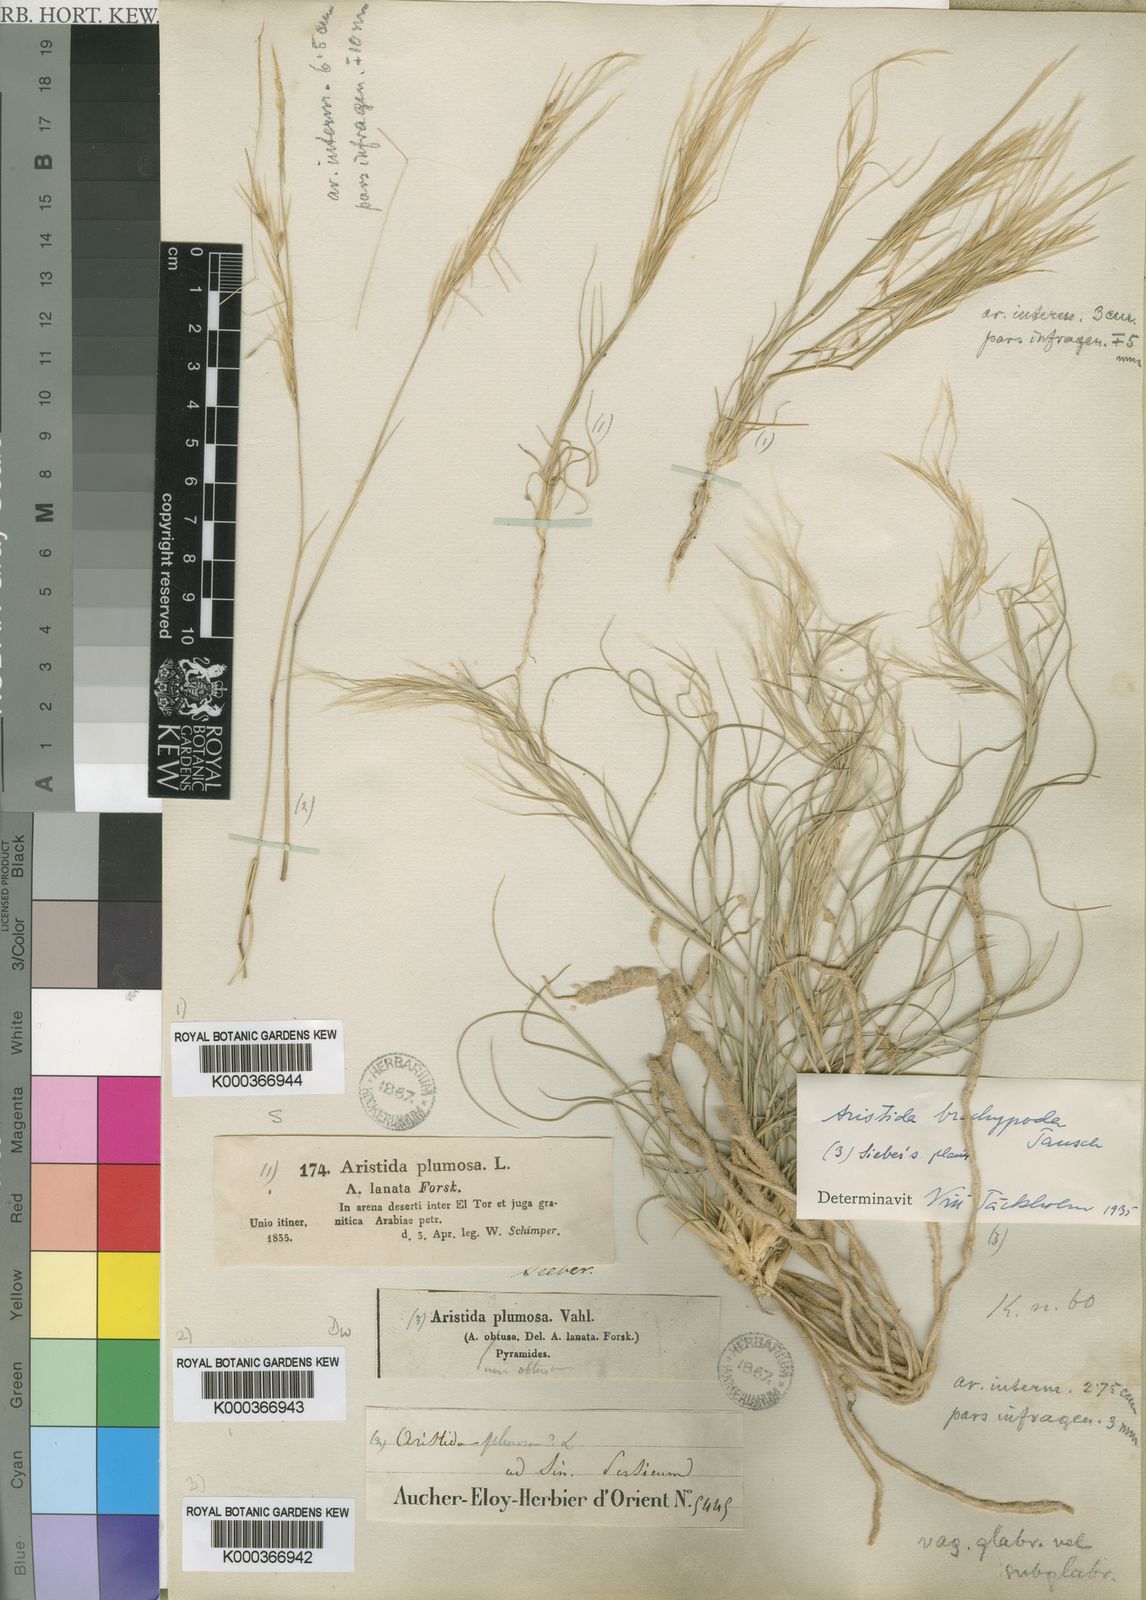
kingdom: Plantae
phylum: Tracheophyta
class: Liliopsida
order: Poales
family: Poaceae
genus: Stipagrostis
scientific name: Stipagrostis plumosa
